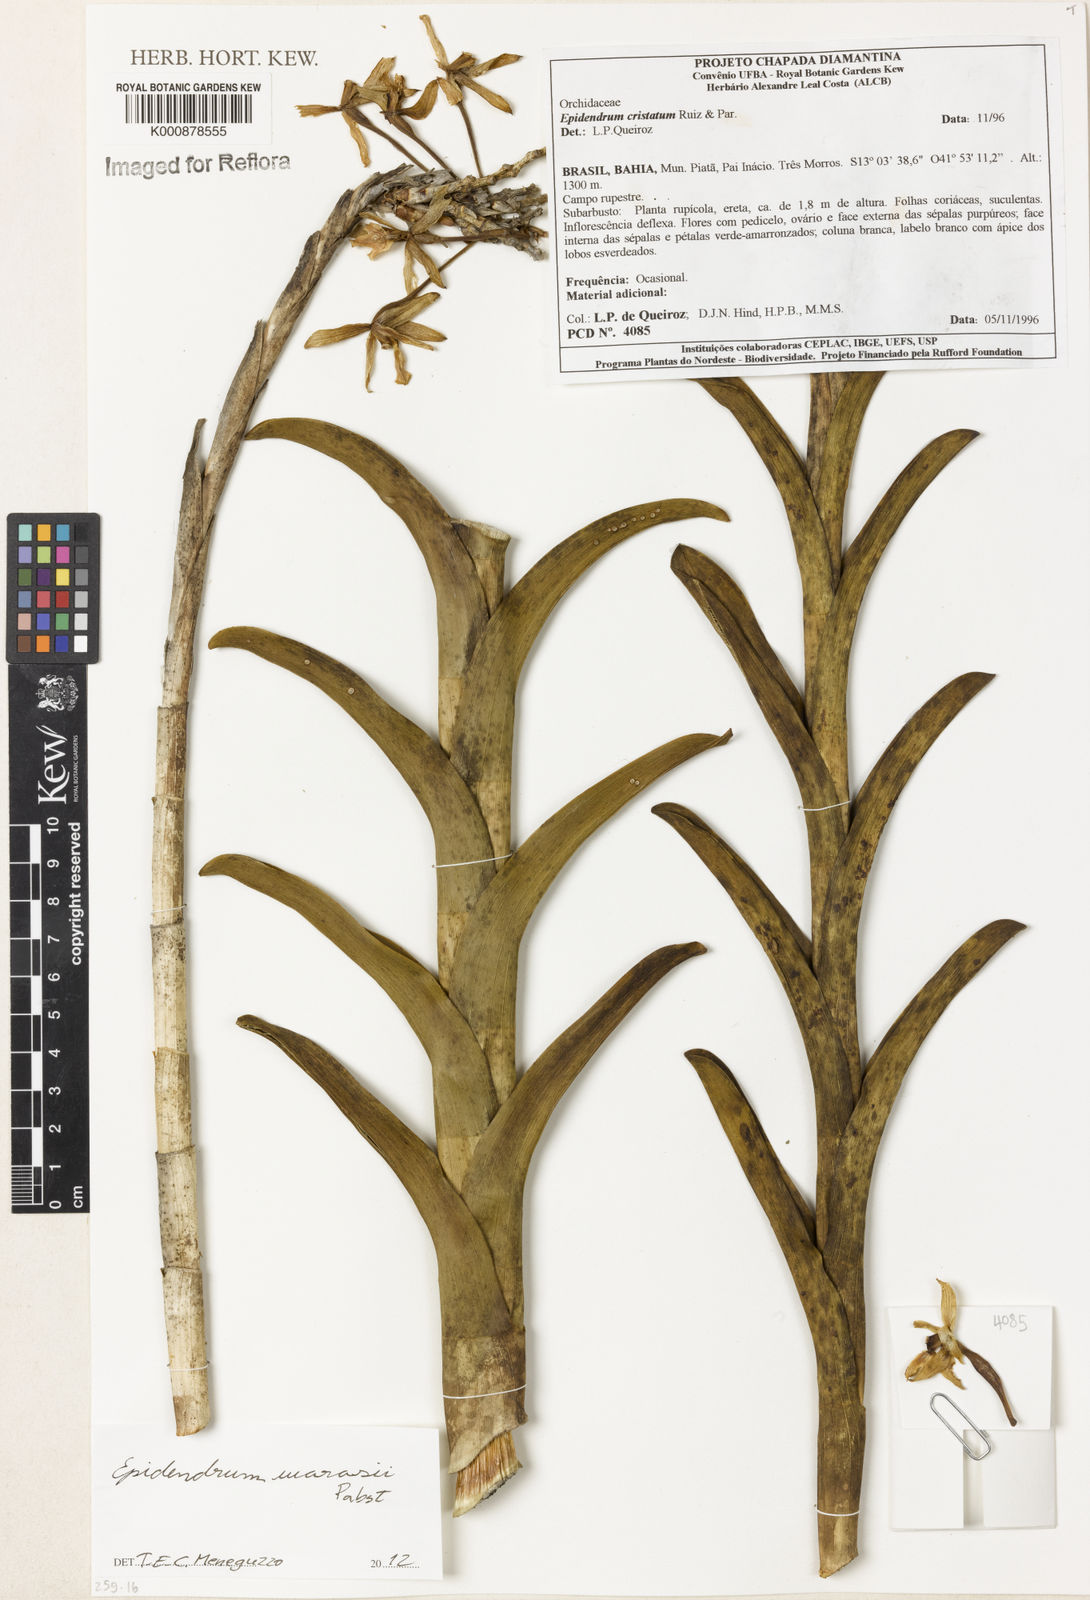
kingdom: Plantae
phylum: Tracheophyta
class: Liliopsida
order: Asparagales
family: Orchidaceae
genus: Epidendrum
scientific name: Epidendrum warrasii
